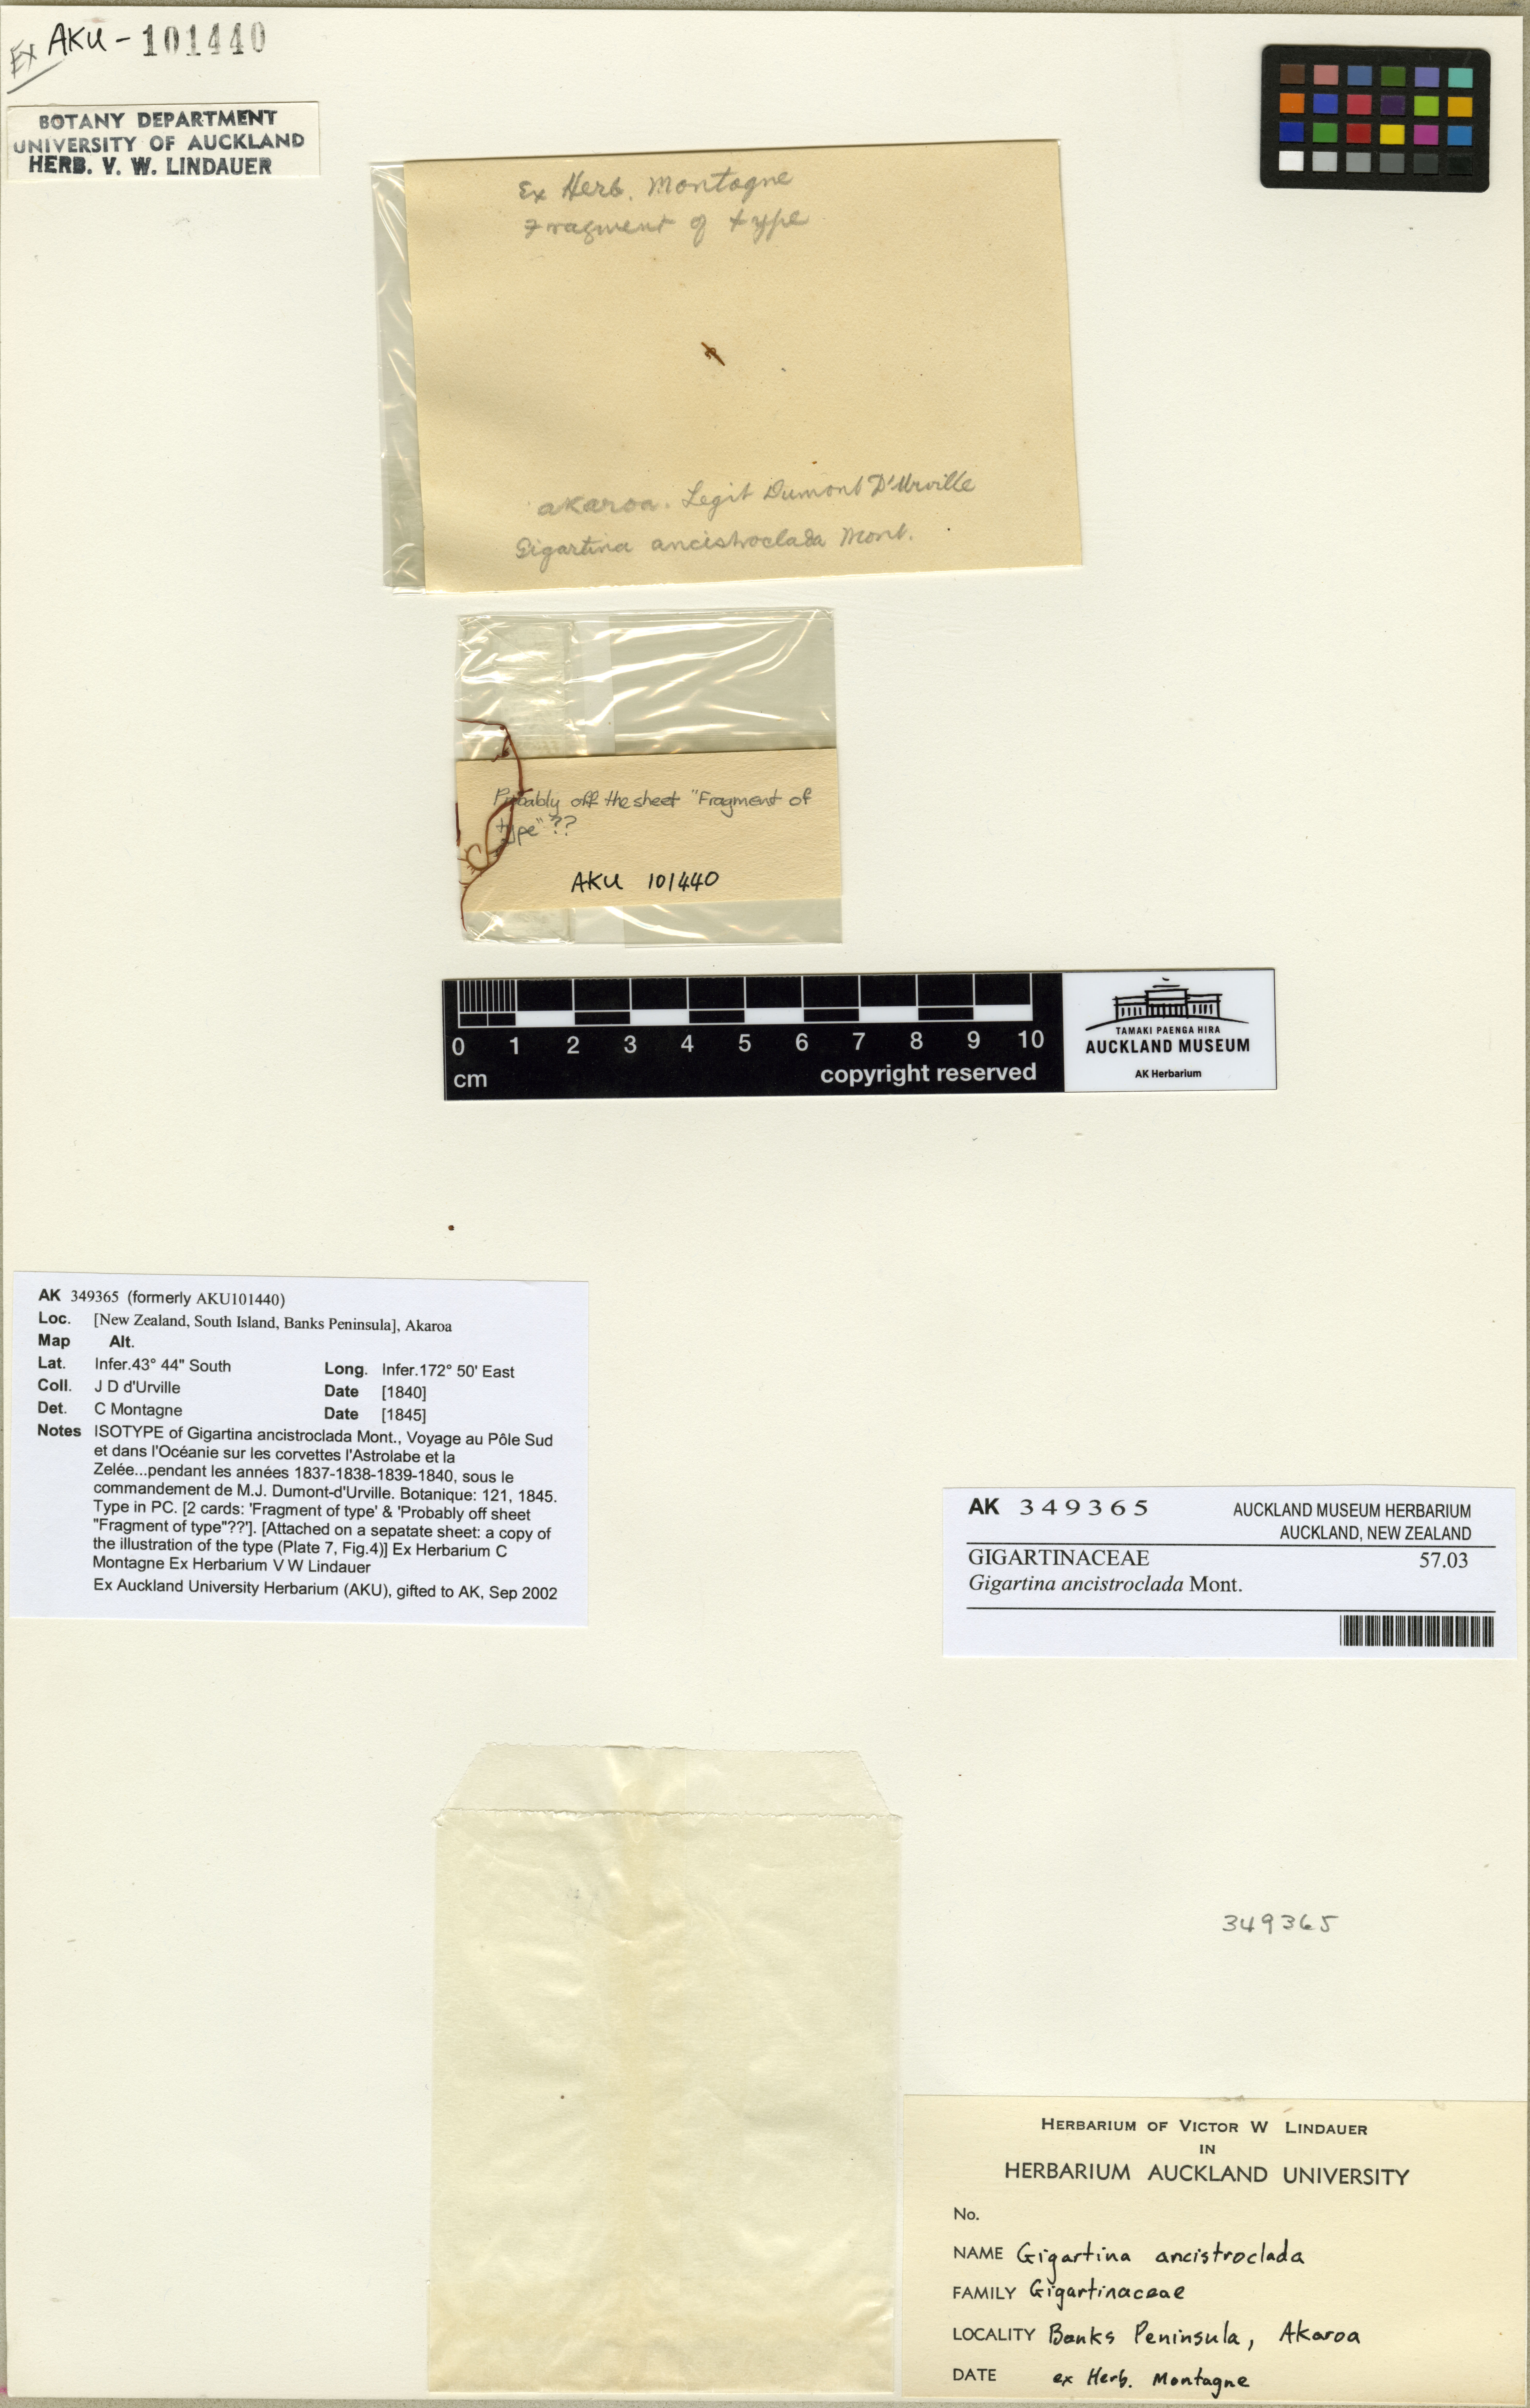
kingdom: Plantae
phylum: Rhodophyta
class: Florideophyceae
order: Gigartinales
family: Gigartinaceae
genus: Gigartina
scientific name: Gigartina
